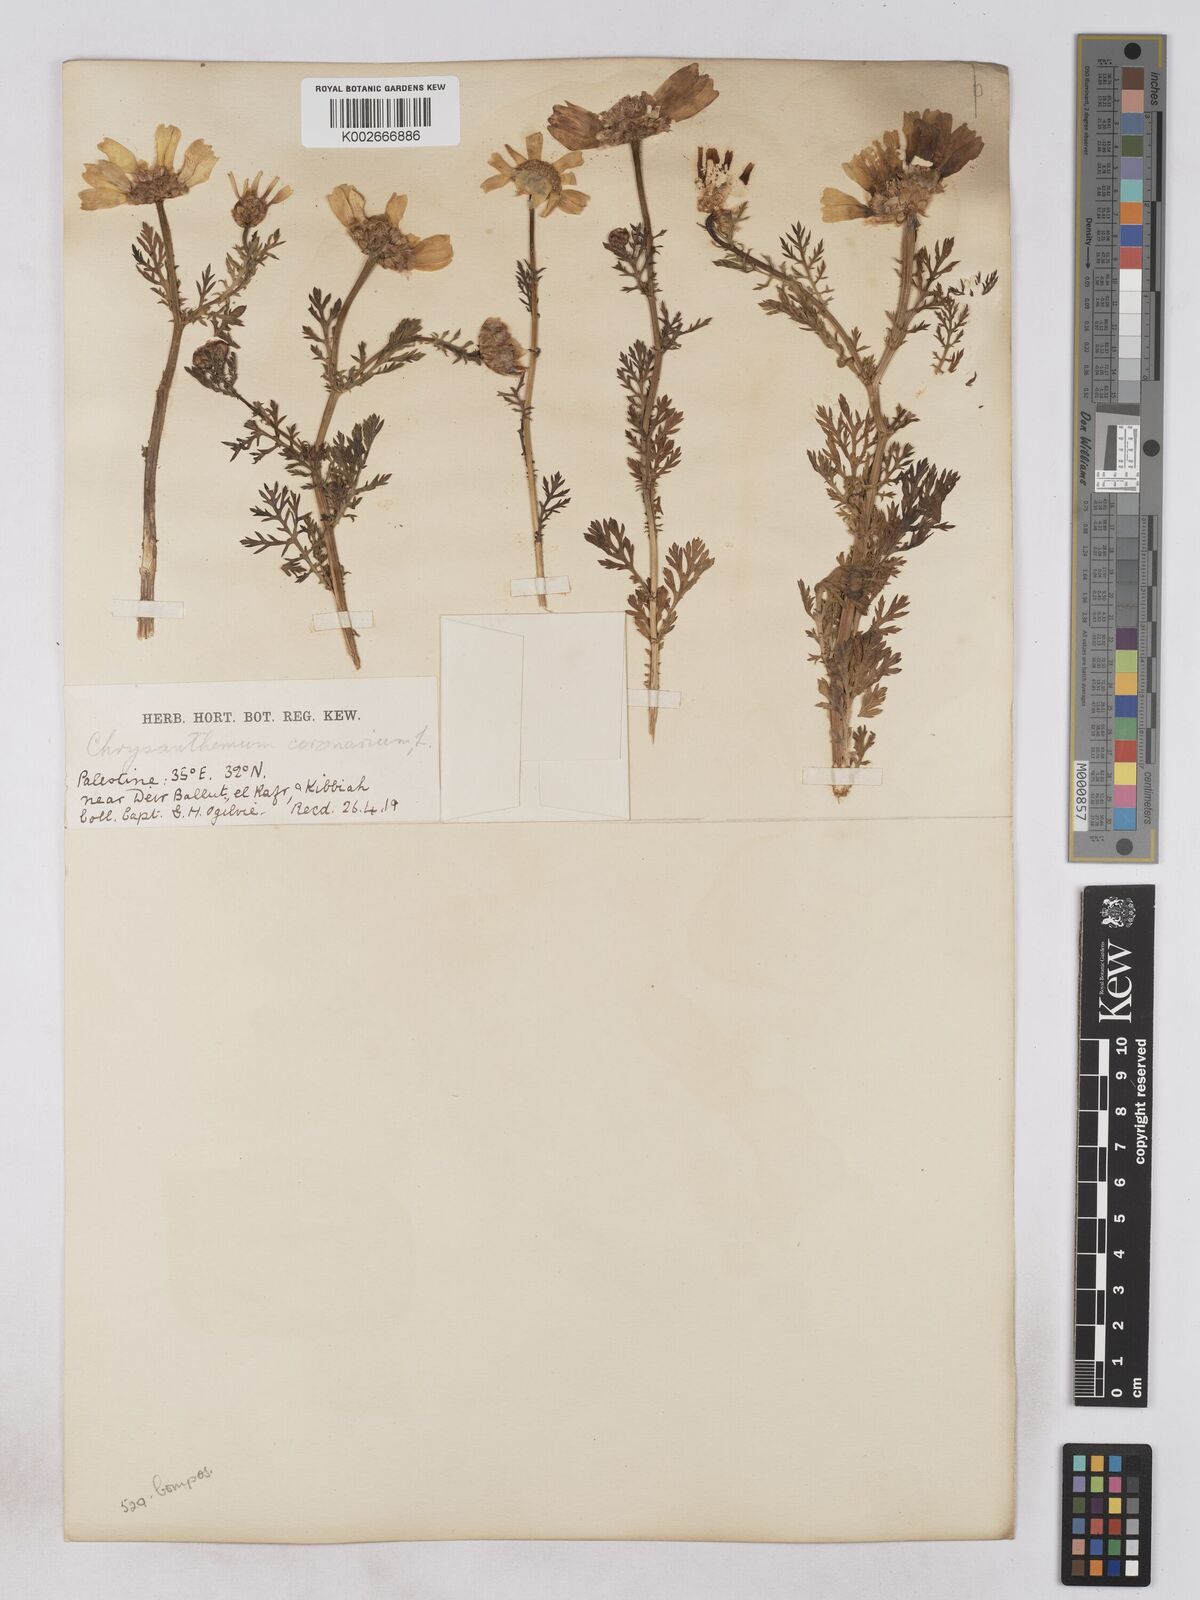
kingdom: Plantae
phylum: Tracheophyta
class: Magnoliopsida
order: Asterales
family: Asteraceae
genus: Glebionis
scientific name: Glebionis coronaria
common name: Crowndaisy
